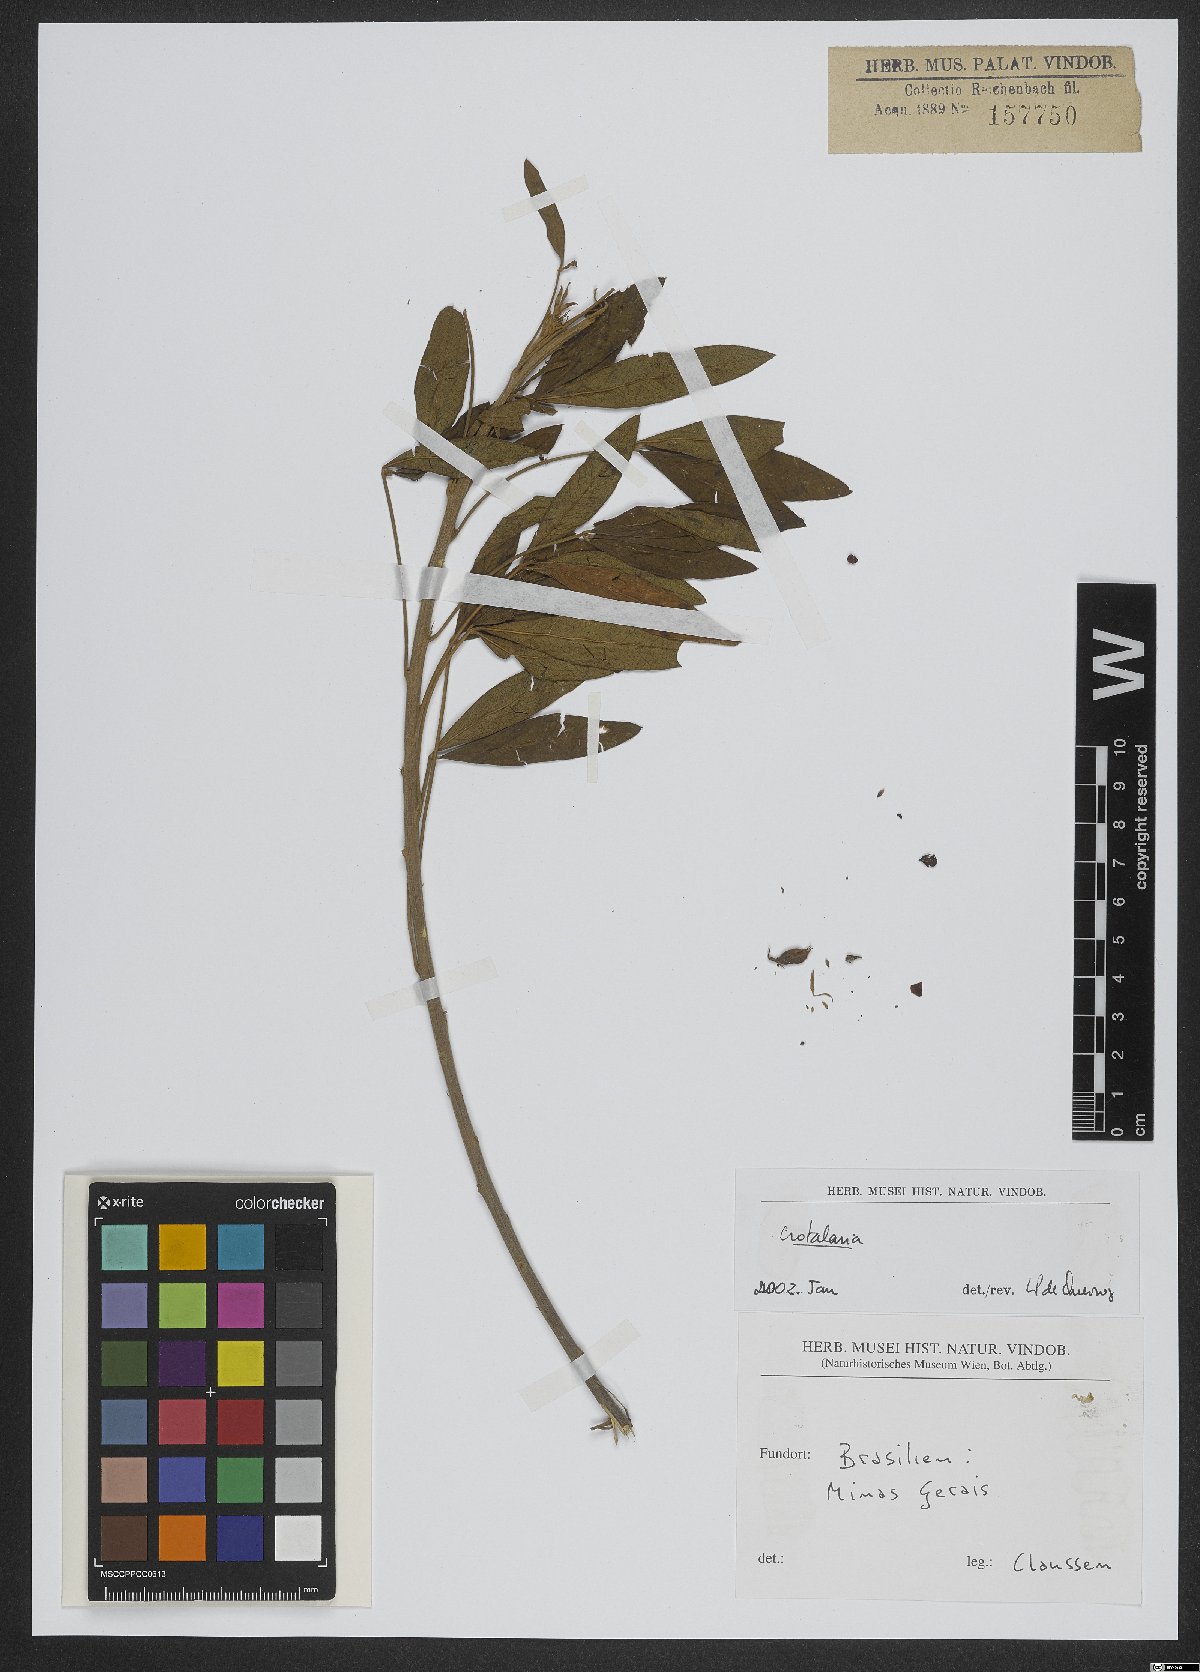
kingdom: Plantae
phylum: Tracheophyta
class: Magnoliopsida
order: Fabales
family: Fabaceae
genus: Crotalaria
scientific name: Crotalaria
